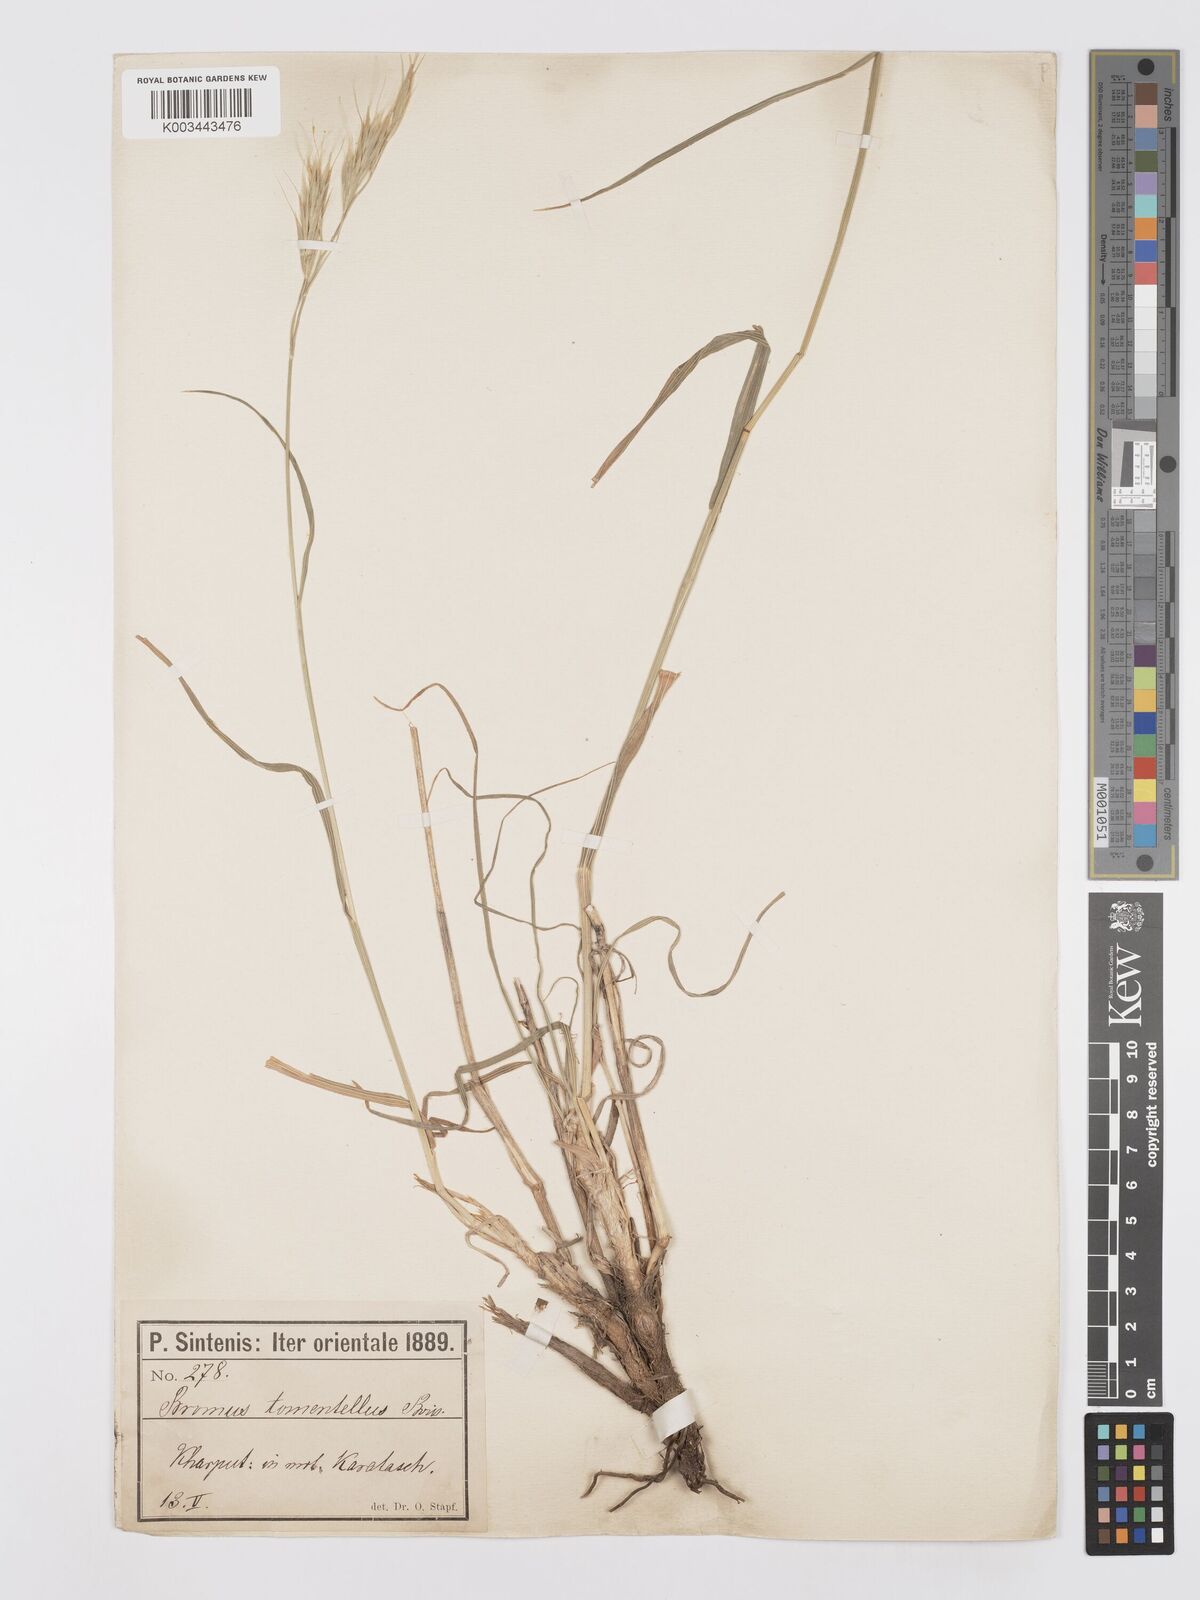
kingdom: Plantae
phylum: Tracheophyta
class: Liliopsida
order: Poales
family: Poaceae
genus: Bromus
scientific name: Bromus tomentellus
